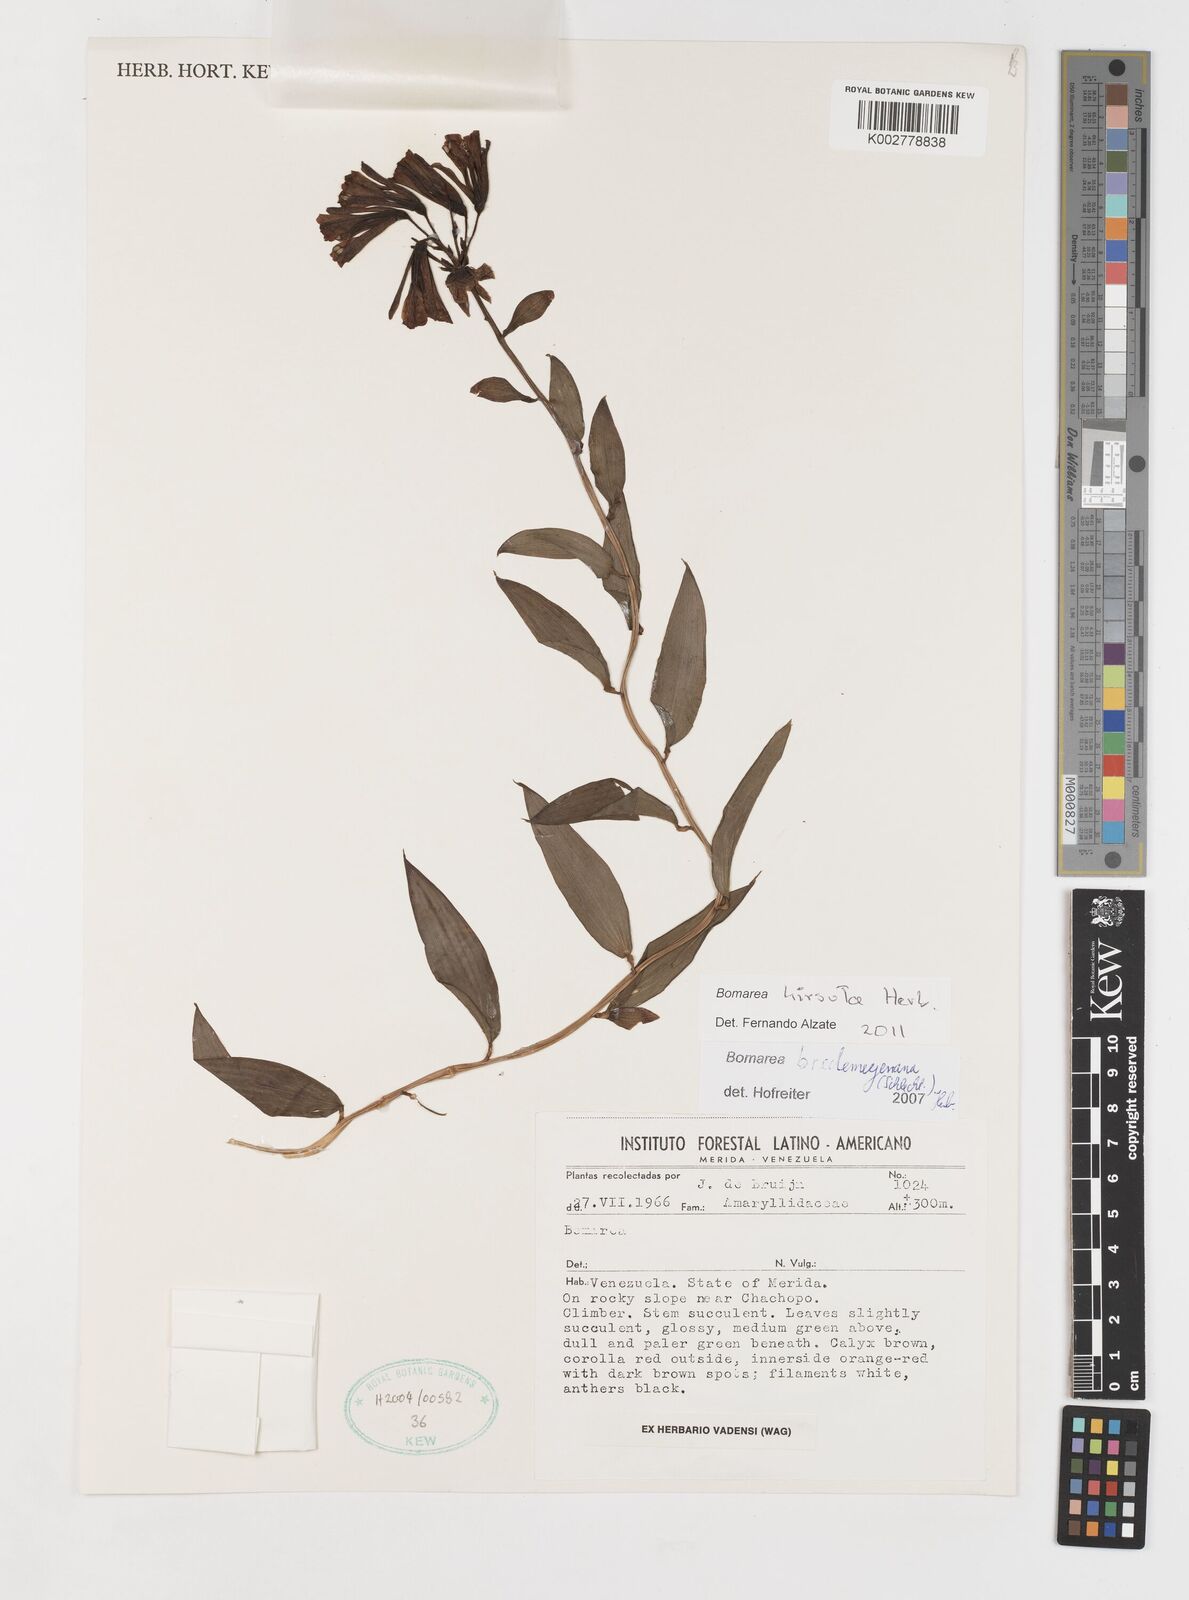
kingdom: Plantae
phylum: Tracheophyta
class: Liliopsida
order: Liliales
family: Alstroemeriaceae
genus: Bomarea
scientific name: Bomarea bredemeyeriana
